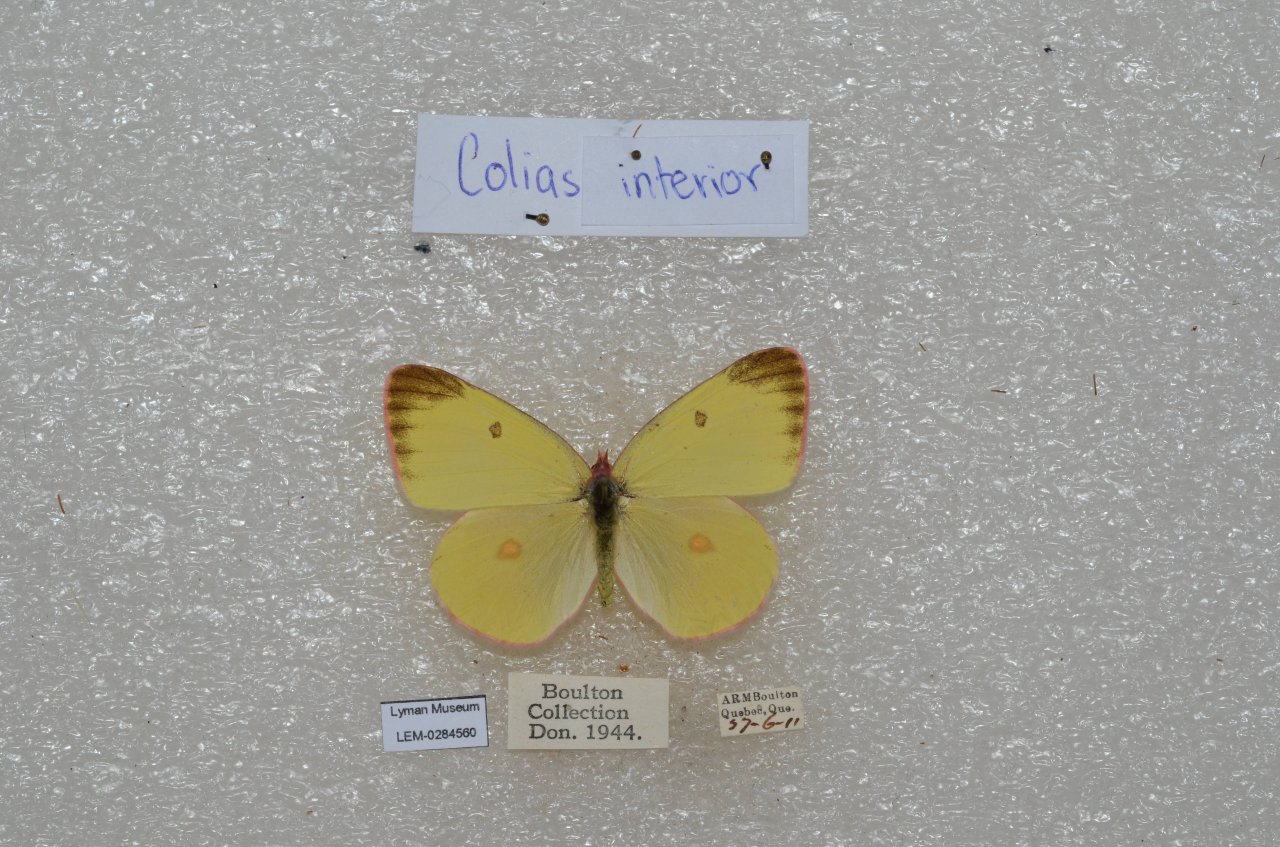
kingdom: Animalia
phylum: Arthropoda
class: Insecta
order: Lepidoptera
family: Pieridae
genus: Colias
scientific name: Colias interior
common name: Pink-edged Sulphur
